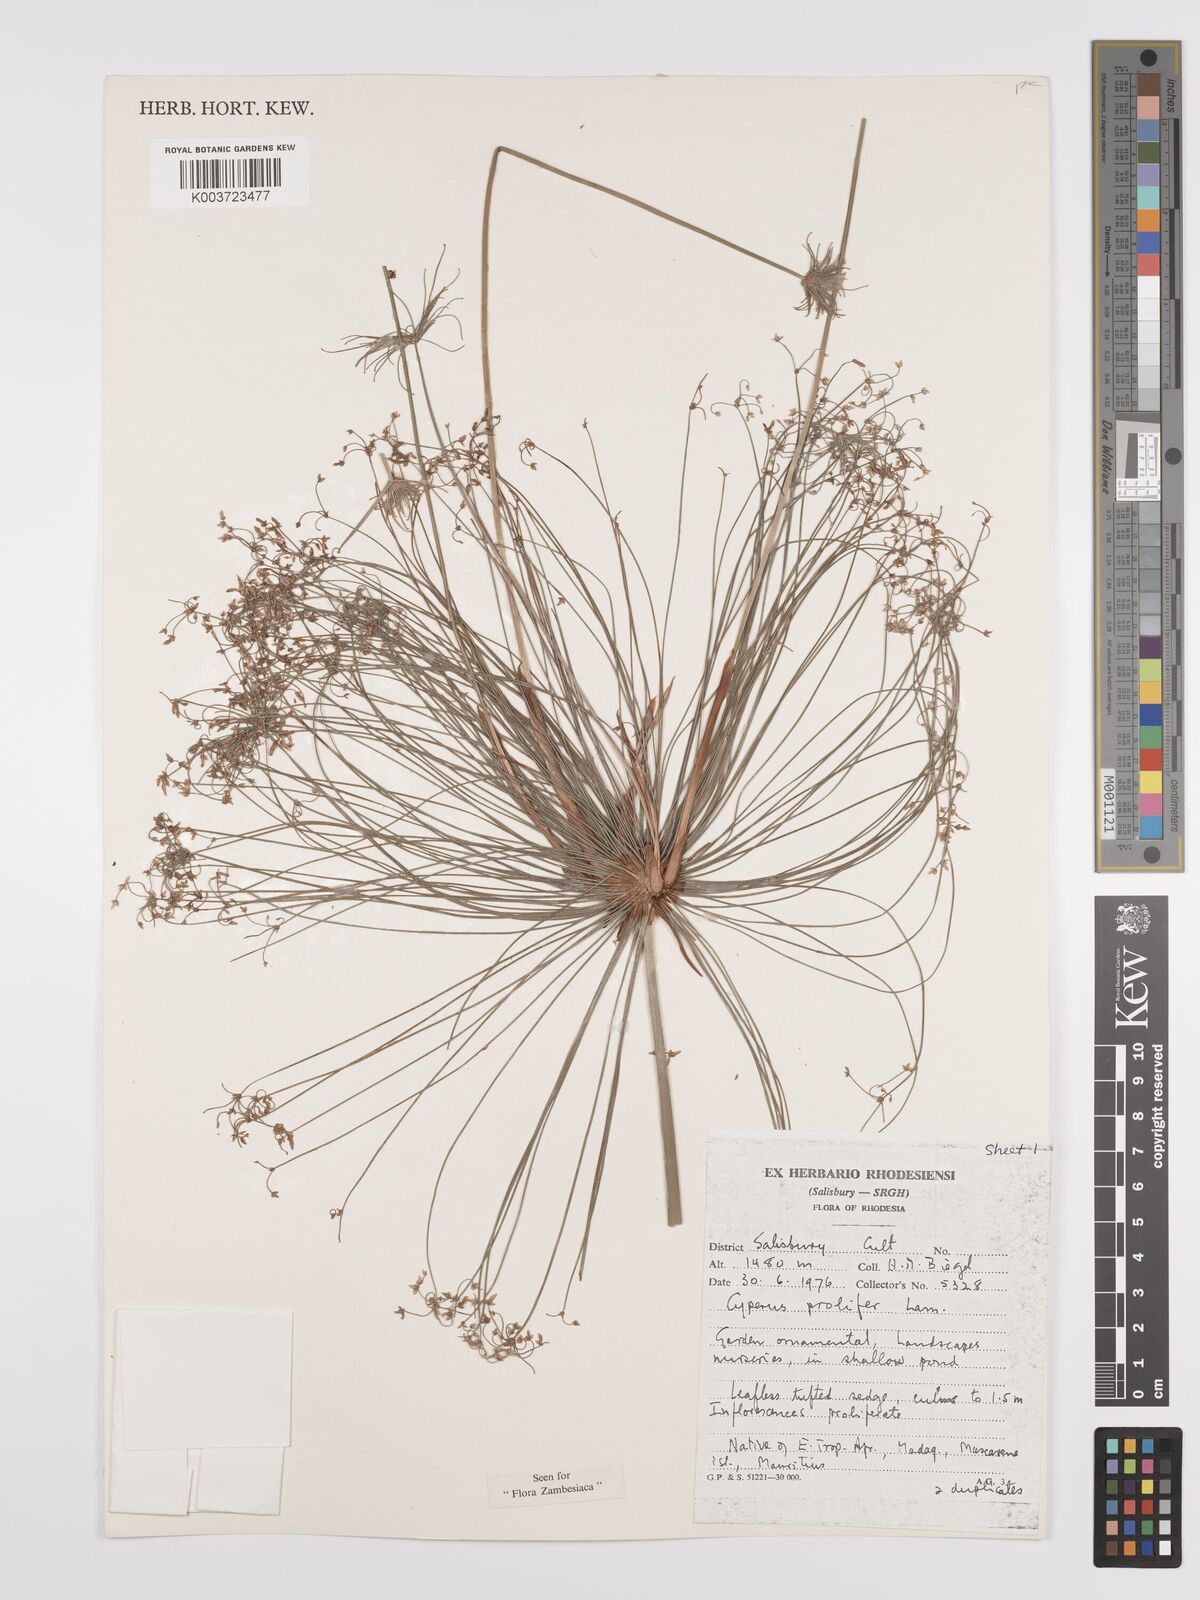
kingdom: Plantae
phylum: Tracheophyta
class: Liliopsida
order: Poales
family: Cyperaceae
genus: Cyperus
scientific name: Cyperus prolifer
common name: Miniature flatsedge
